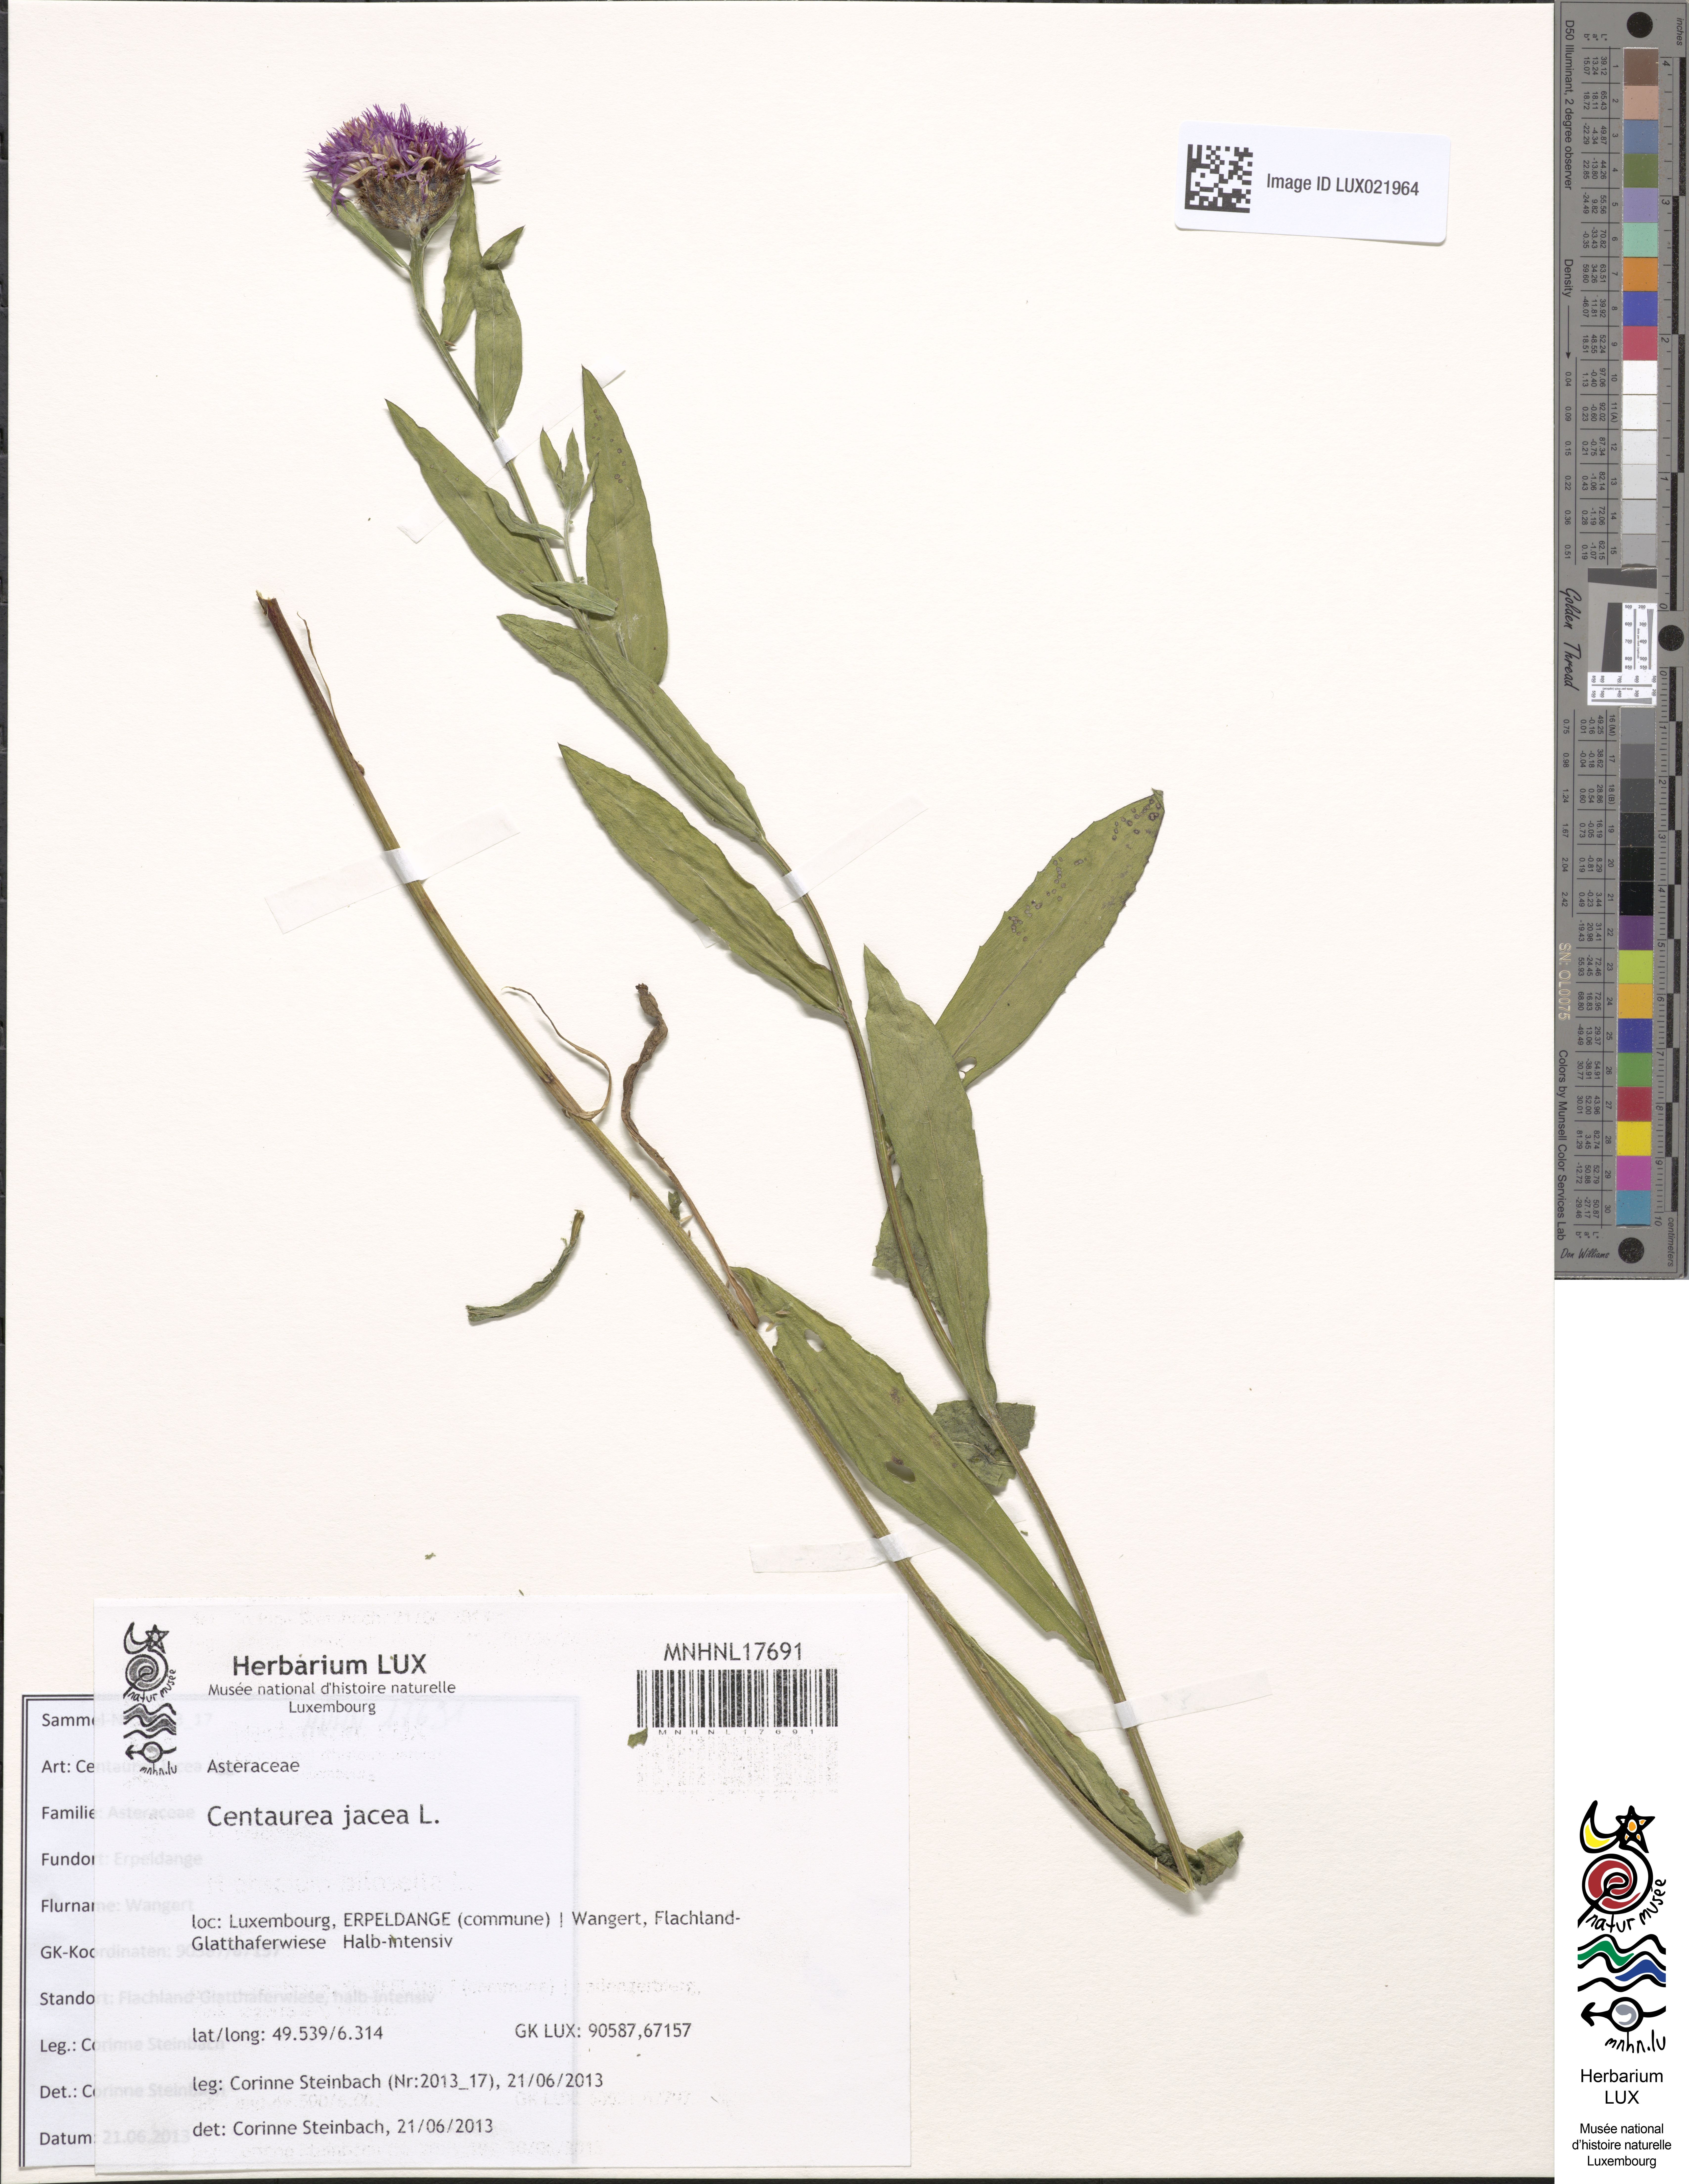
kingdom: Plantae
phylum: Tracheophyta
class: Magnoliopsida
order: Asterales
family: Asteraceae
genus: Centaurea
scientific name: Centaurea jacea
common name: Brown knapweed
